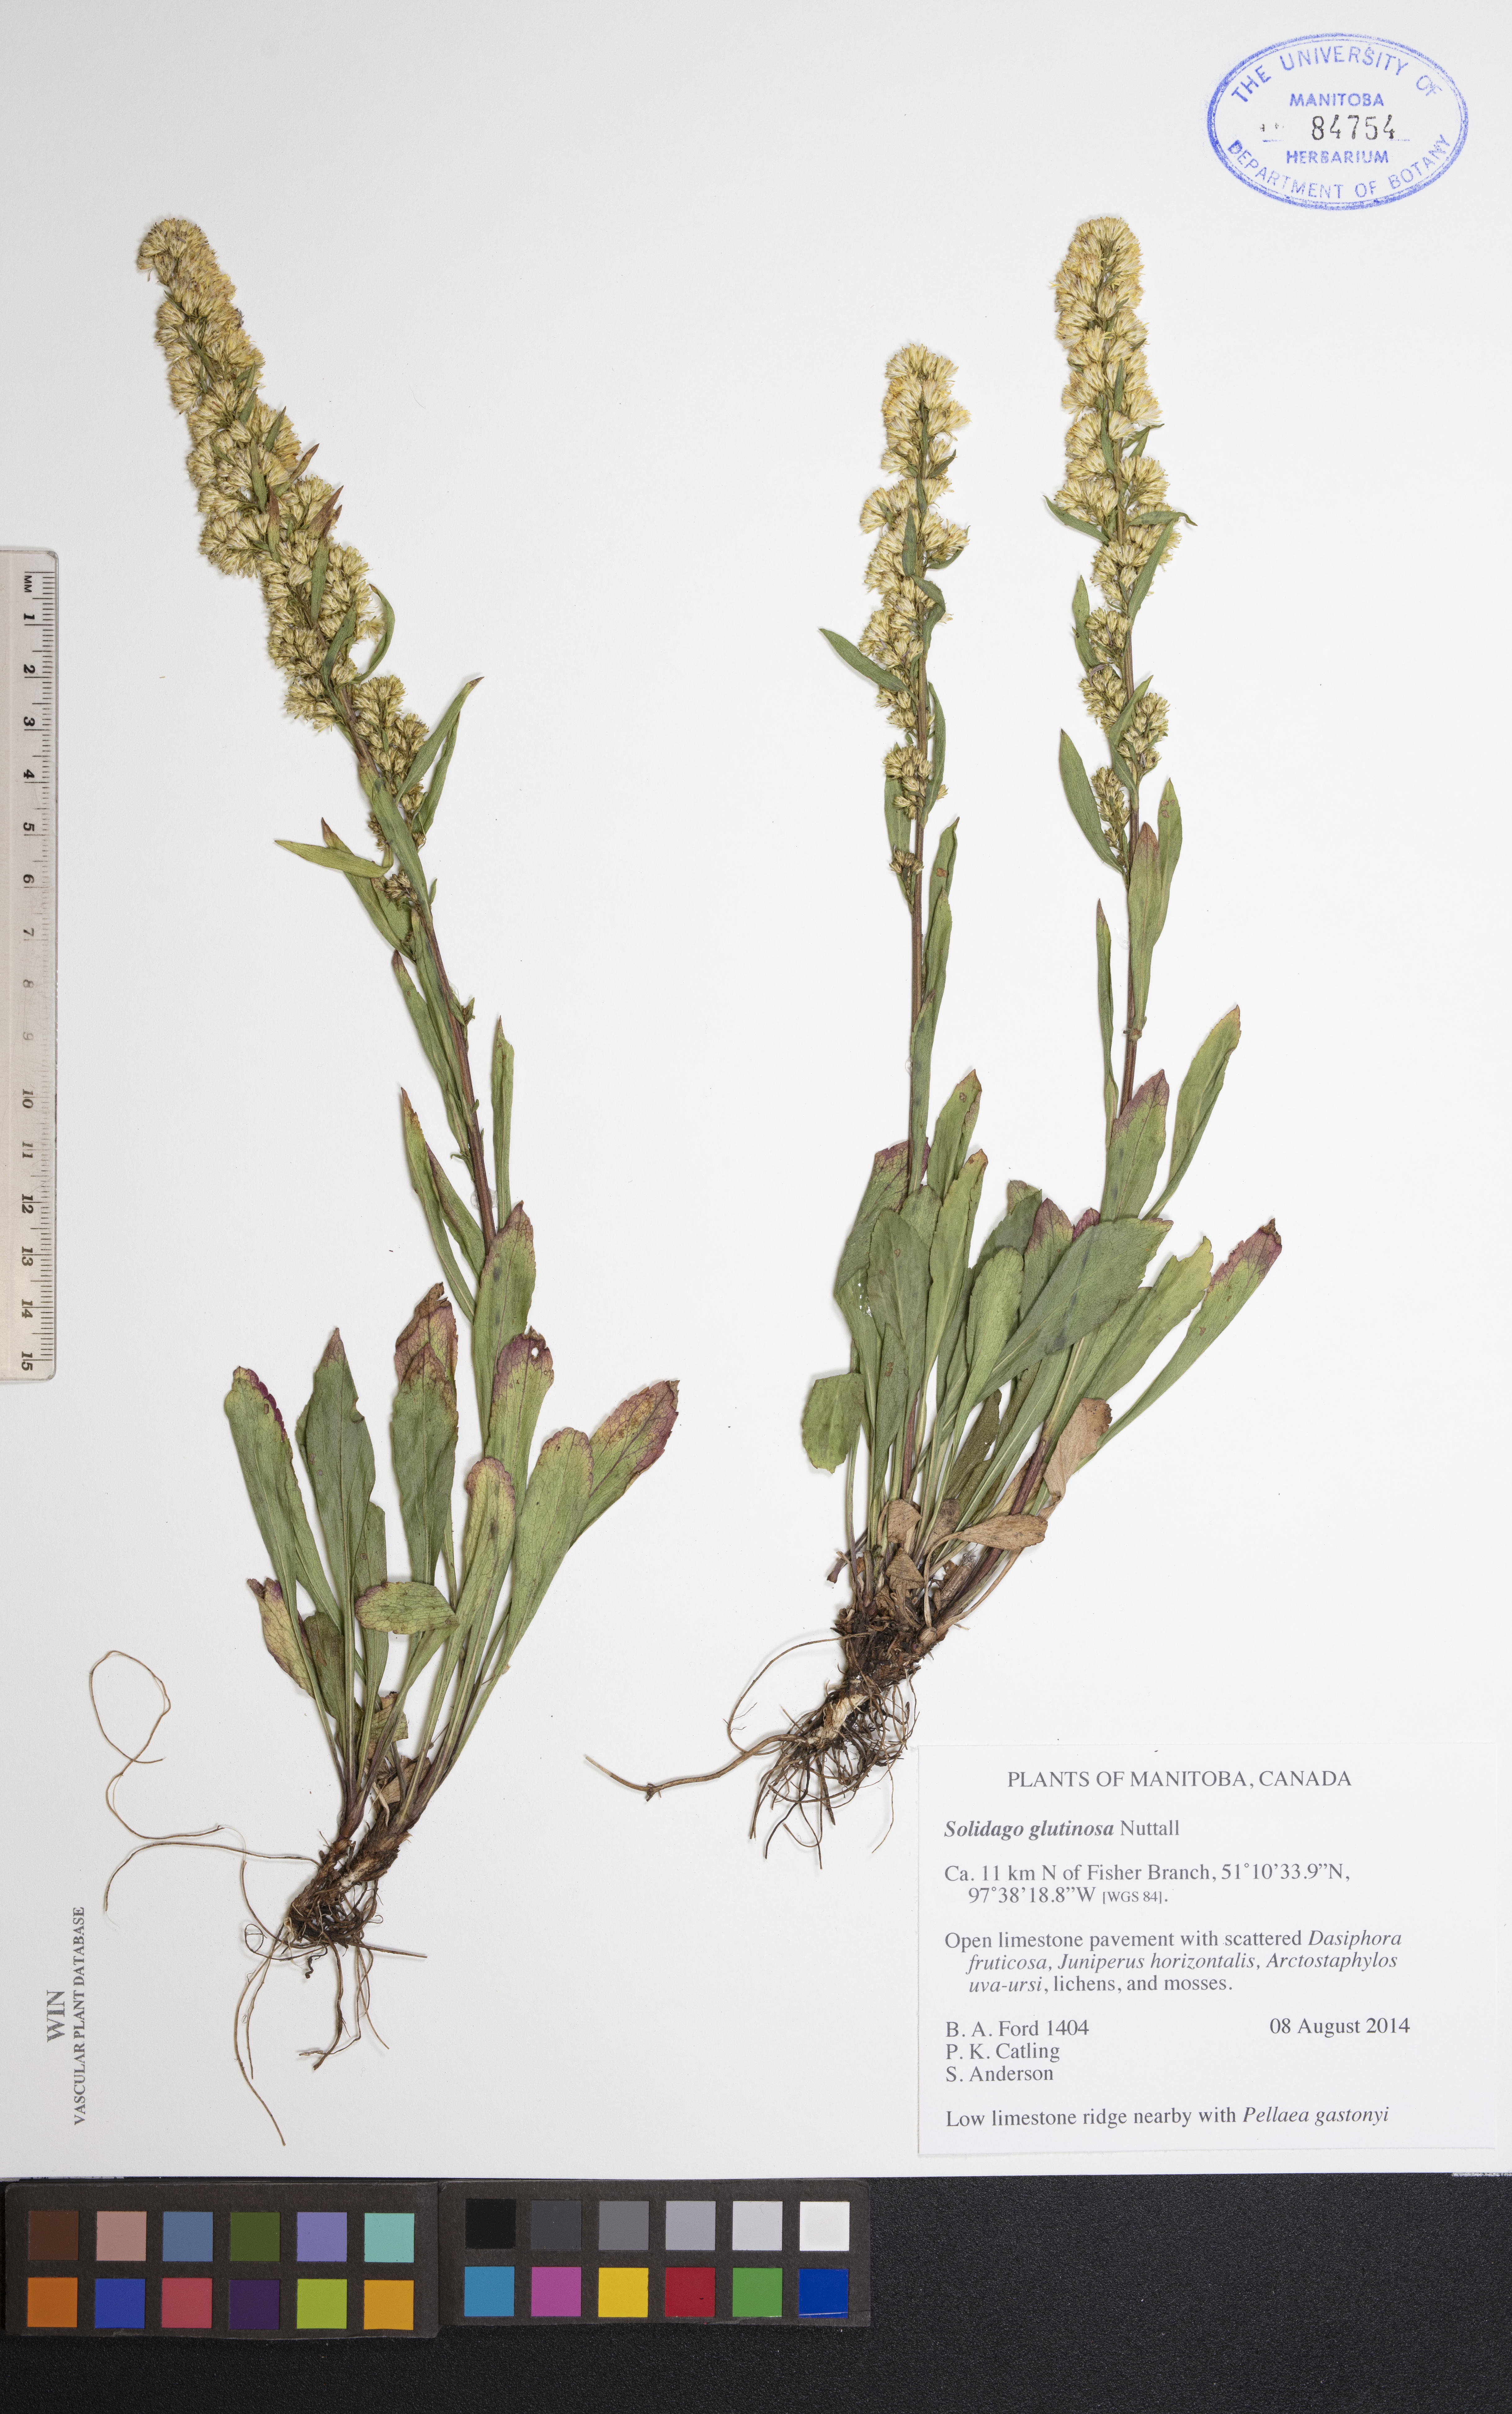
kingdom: Plantae
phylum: Tracheophyta
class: Magnoliopsida
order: Asterales
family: Asteraceae
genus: Solidago
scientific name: Solidago glutinosa
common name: Decumbent goldenrod
